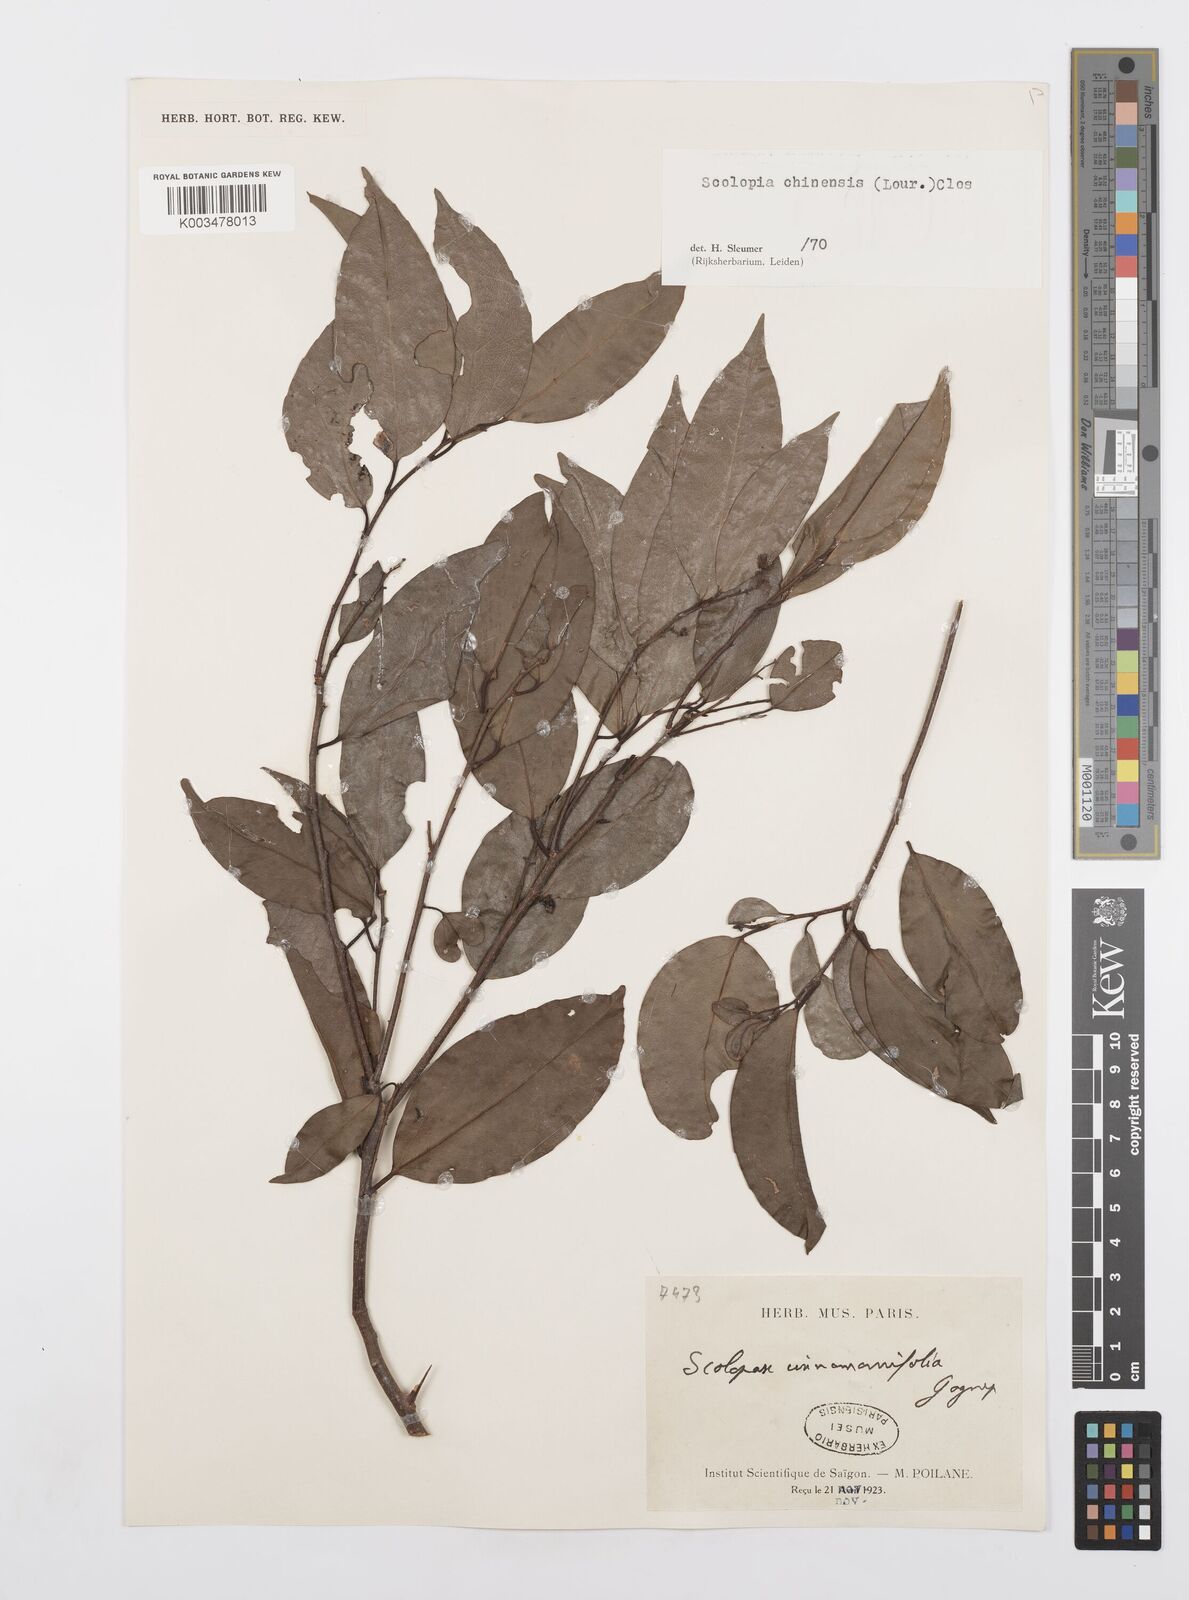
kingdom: Plantae
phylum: Tracheophyta
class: Magnoliopsida
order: Malpighiales
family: Salicaceae
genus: Scolopia
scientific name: Scolopia saeva
